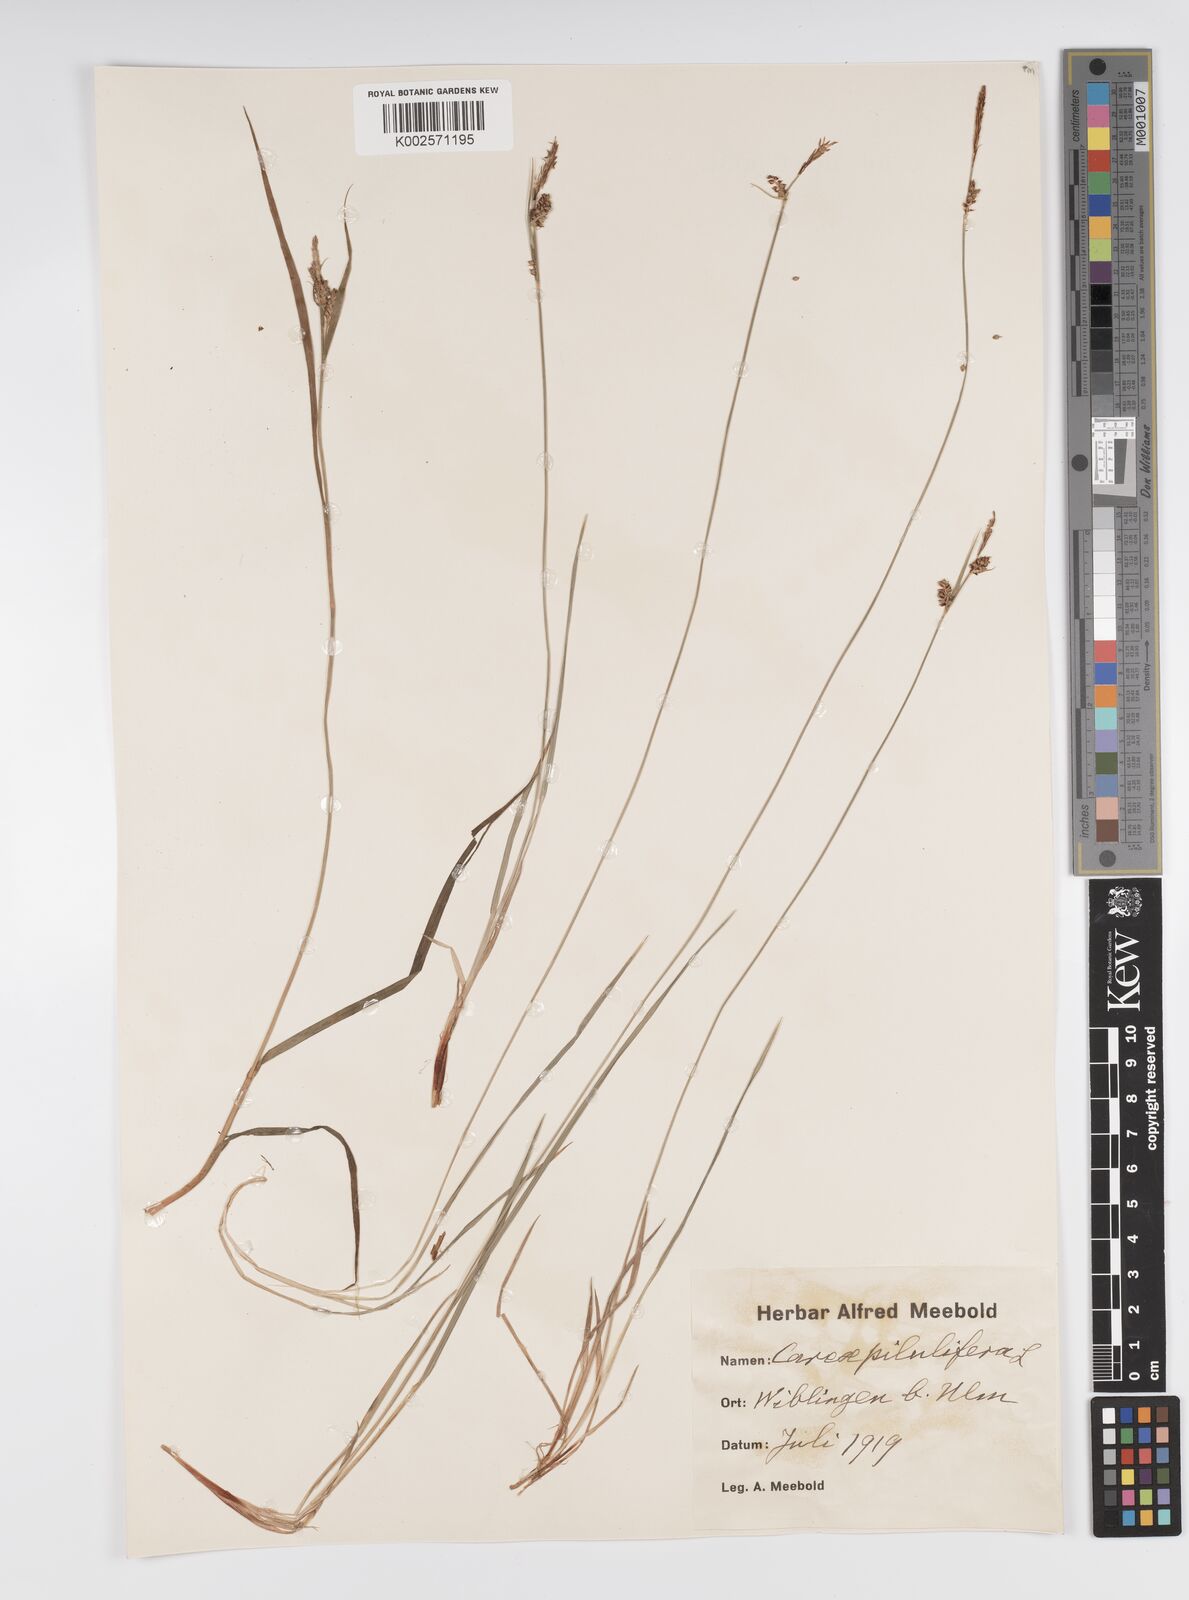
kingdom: Plantae
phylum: Tracheophyta
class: Liliopsida
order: Poales
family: Cyperaceae
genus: Carex
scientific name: Carex pilulifera
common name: Pill sedge
